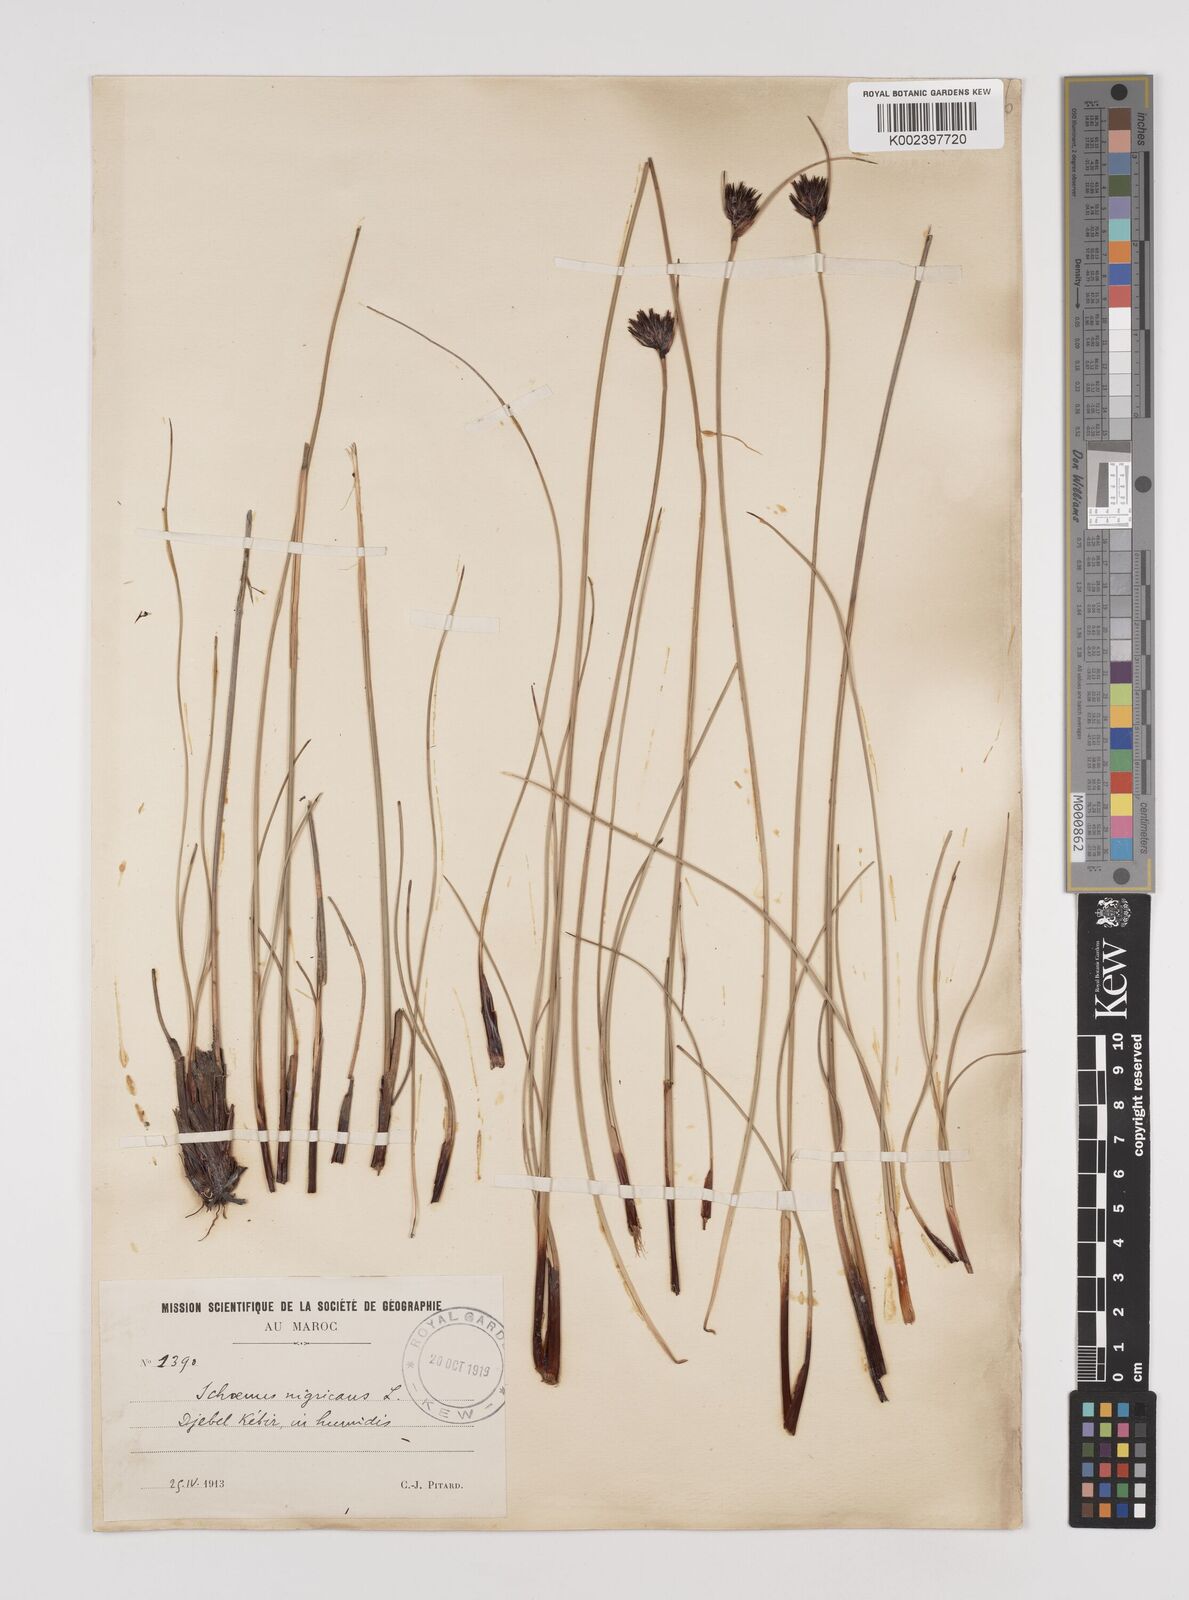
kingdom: Plantae
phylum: Tracheophyta
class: Liliopsida
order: Poales
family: Cyperaceae
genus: Schoenus
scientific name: Schoenus nigricans
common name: Black bog-rush
